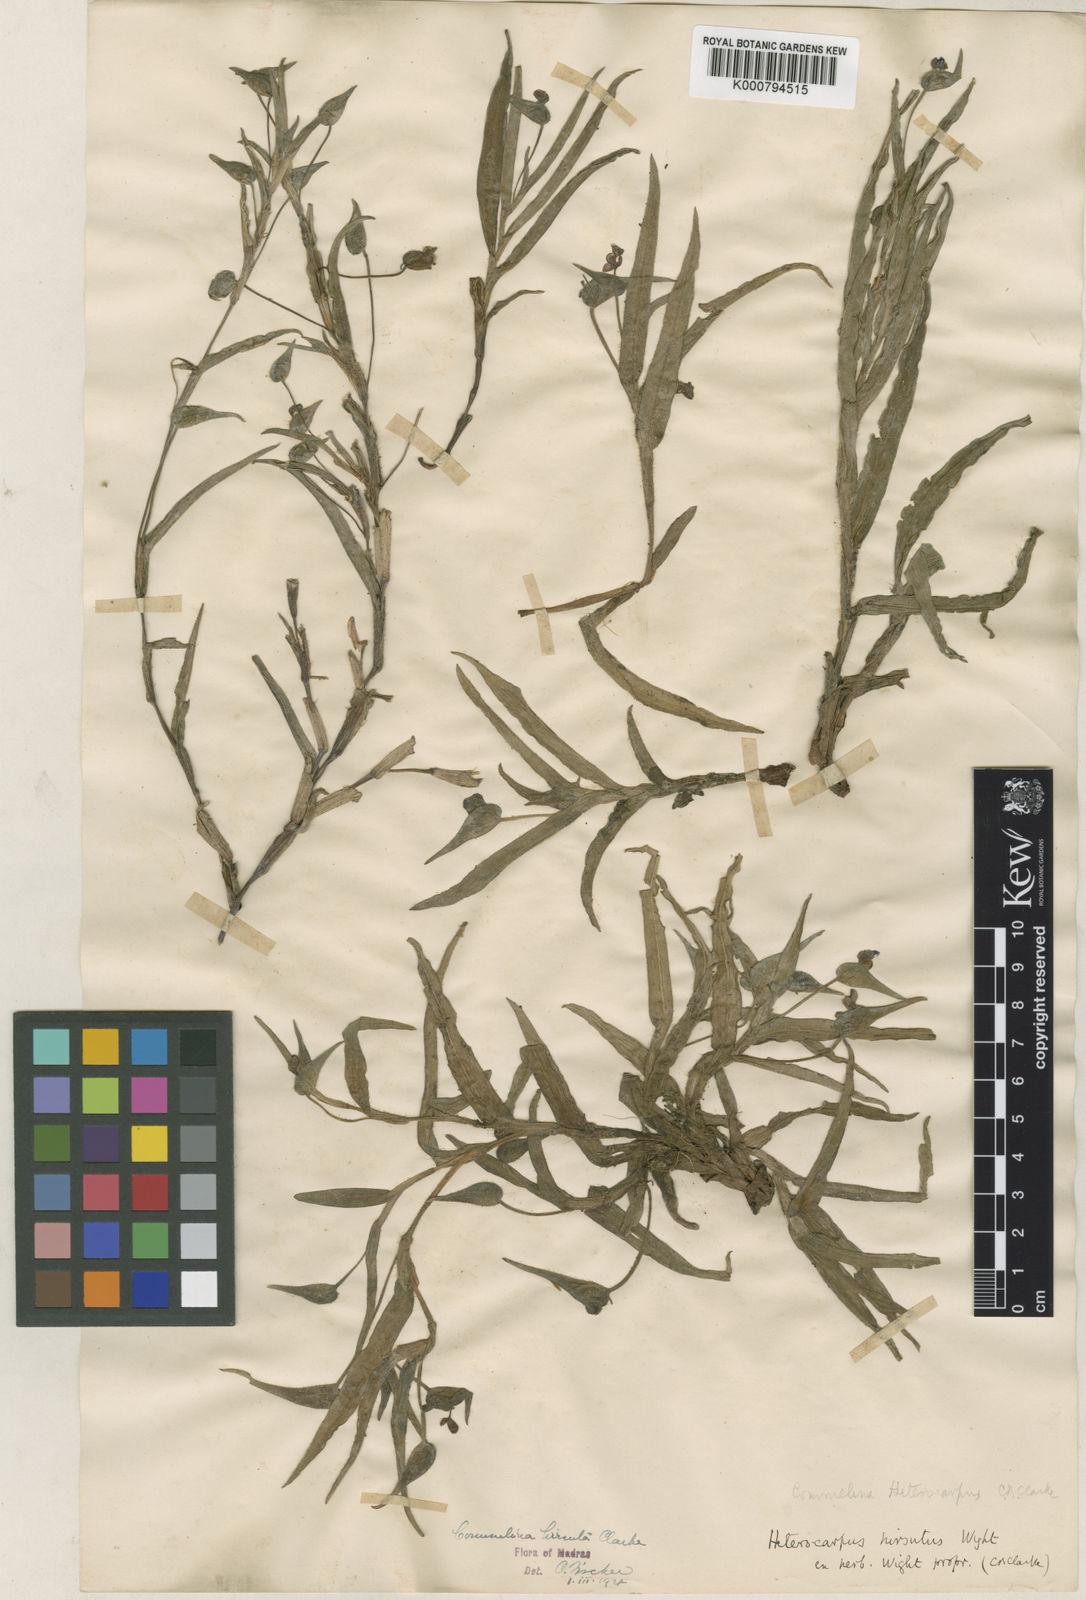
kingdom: Plantae
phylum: Tracheophyta
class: Liliopsida
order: Commelinales
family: Commelinaceae
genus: Commelina
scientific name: Commelina
